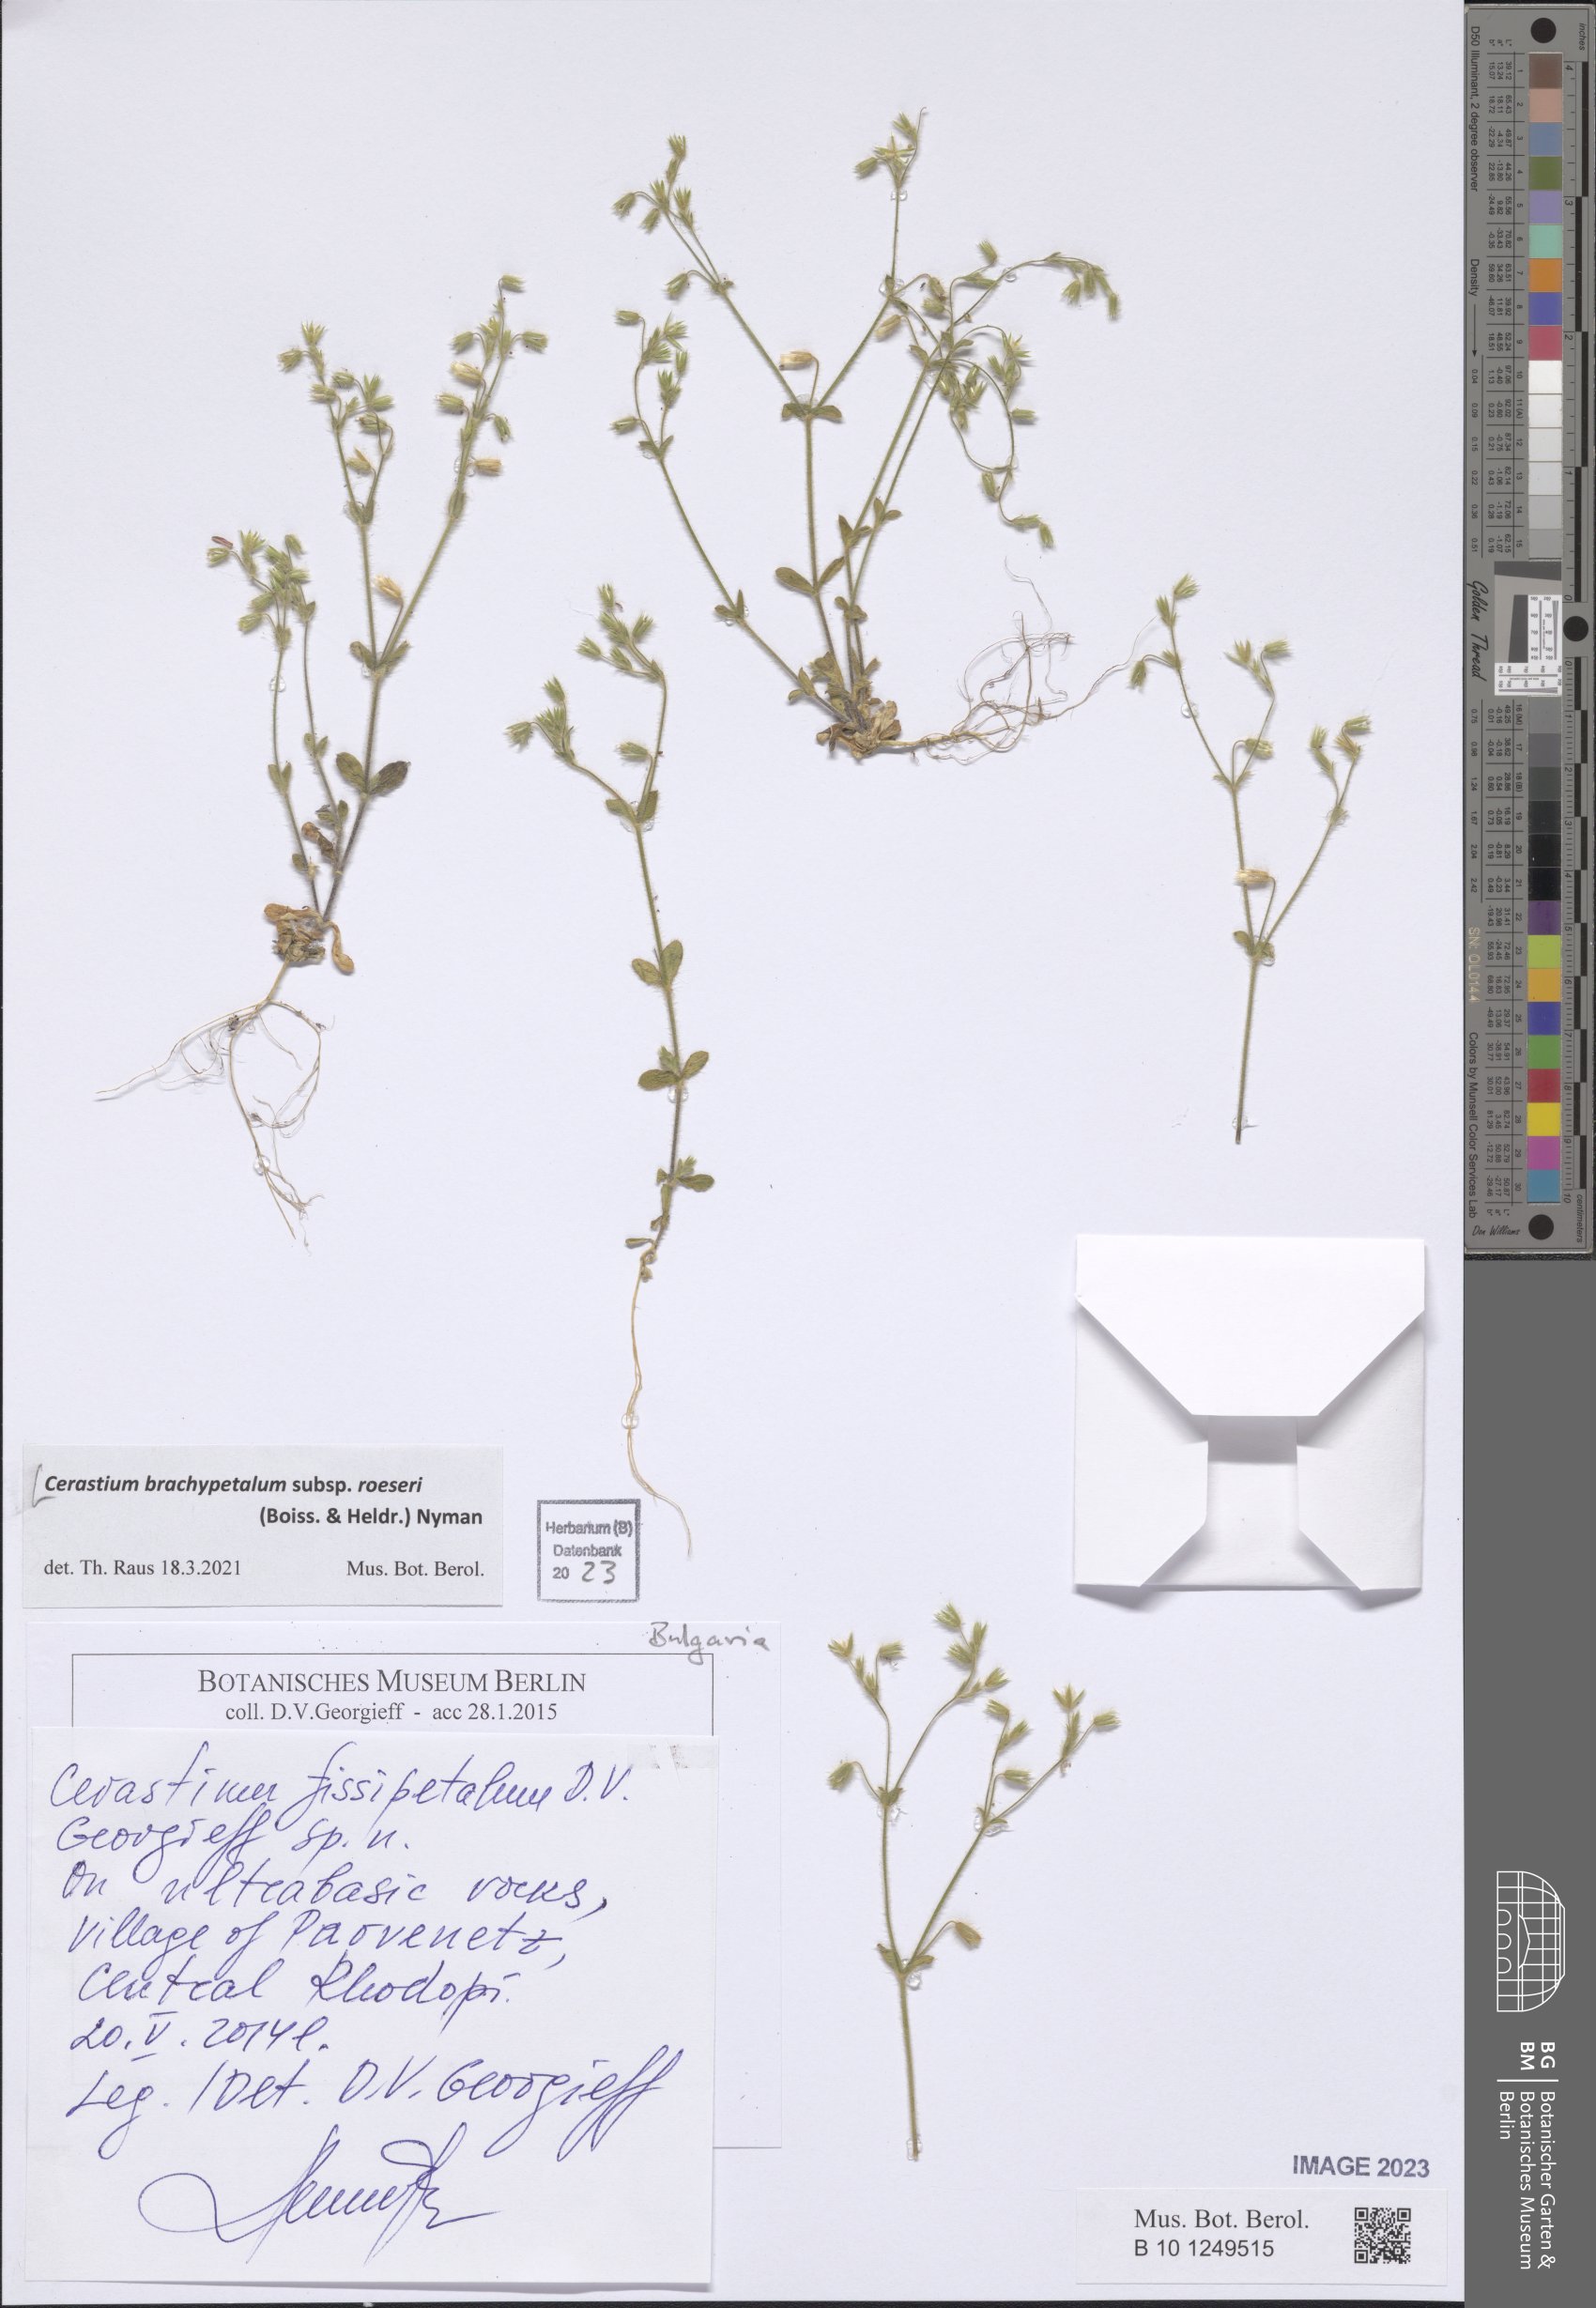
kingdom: Plantae
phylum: Tracheophyta
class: Magnoliopsida
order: Caryophyllales
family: Caryophyllaceae
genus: Cerastium
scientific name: Cerastium brachypetalum
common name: Grey mouse-ear
